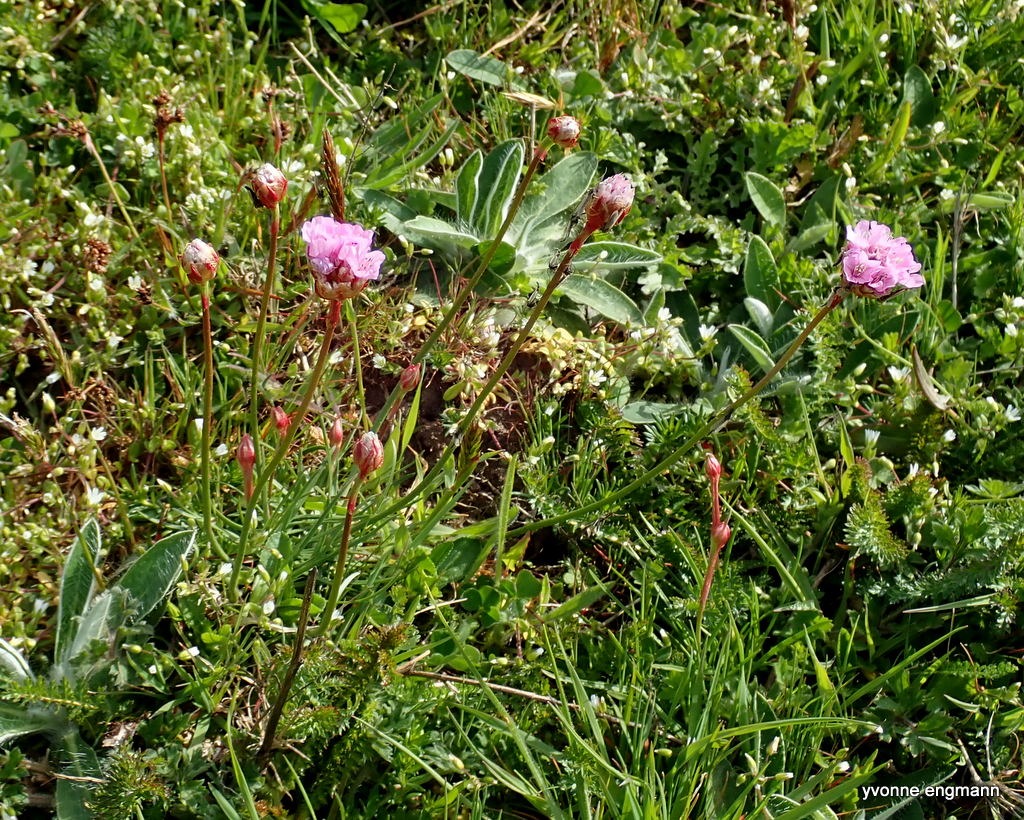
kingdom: Plantae
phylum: Tracheophyta
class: Magnoliopsida
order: Caryophyllales
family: Plumbaginaceae
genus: Armeria
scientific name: Armeria maritima
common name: Engelskgræs
